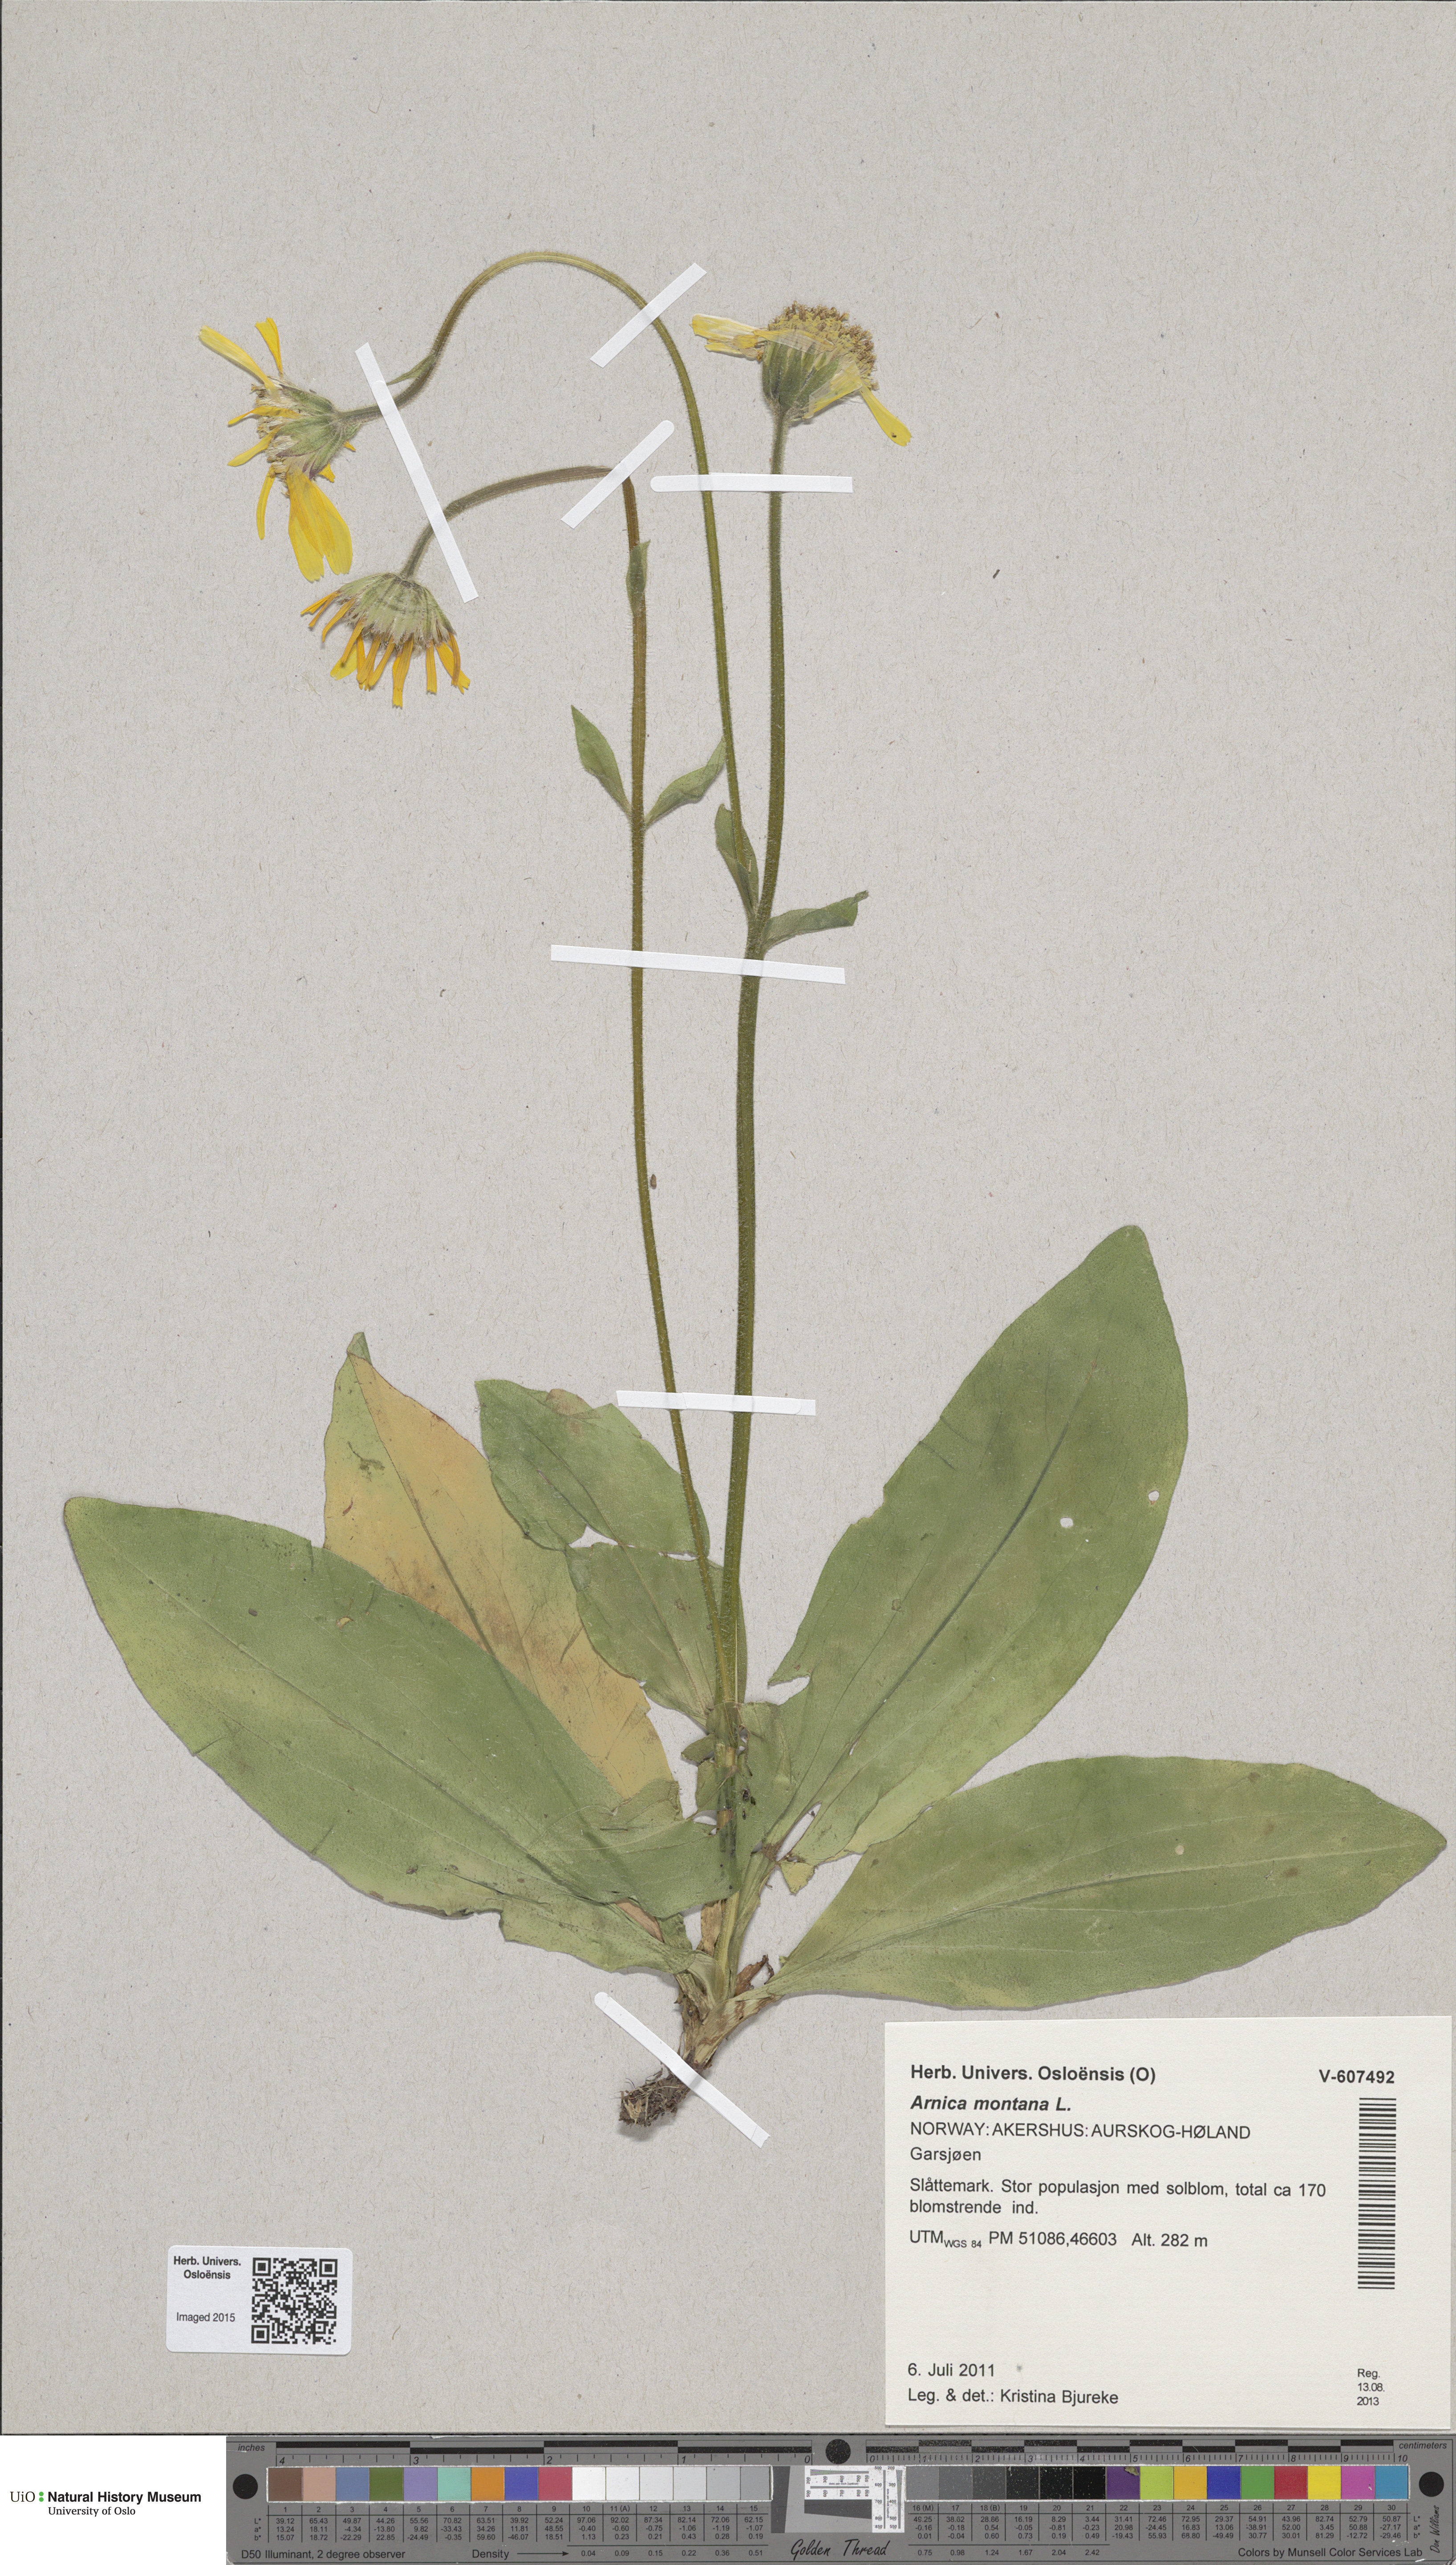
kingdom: Plantae
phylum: Tracheophyta
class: Magnoliopsida
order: Asterales
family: Asteraceae
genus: Arnica
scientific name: Arnica montana
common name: Leopard's bane
